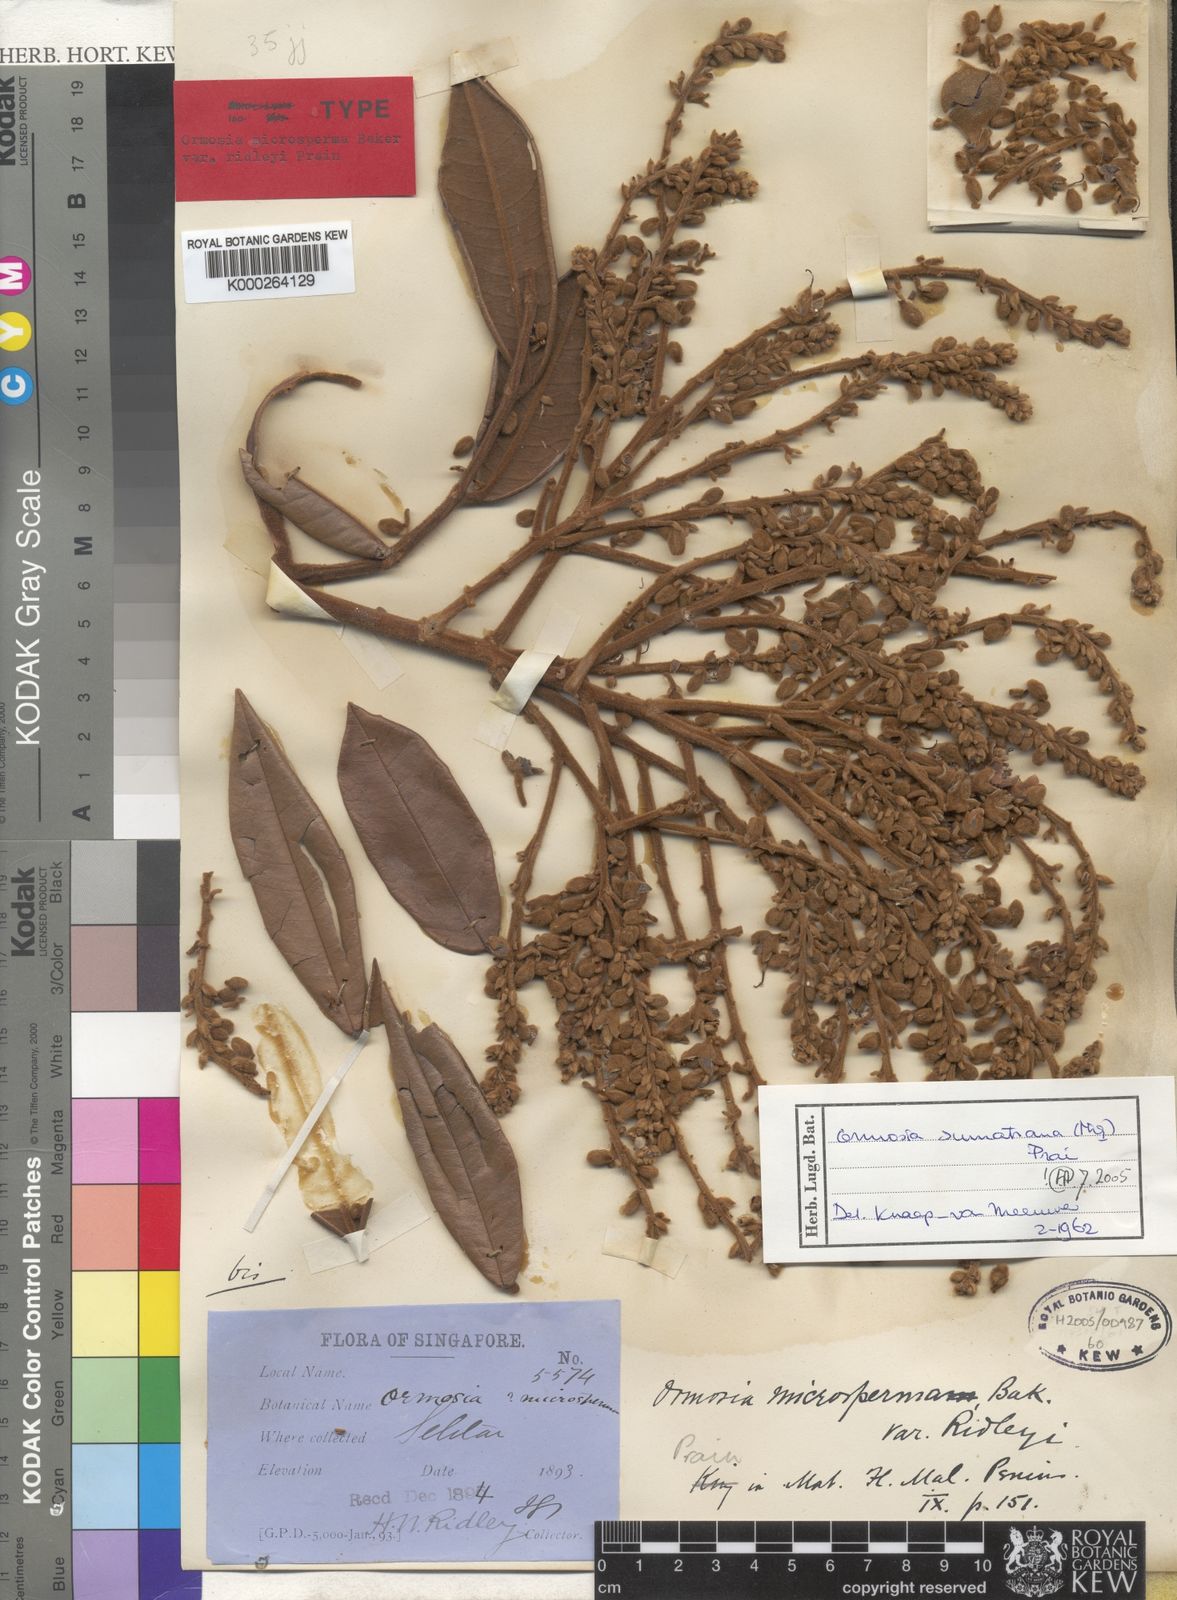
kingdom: Plantae
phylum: Tracheophyta
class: Magnoliopsida
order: Fabales
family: Fabaceae
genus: Ormosia
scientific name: Ormosia sumatrana
